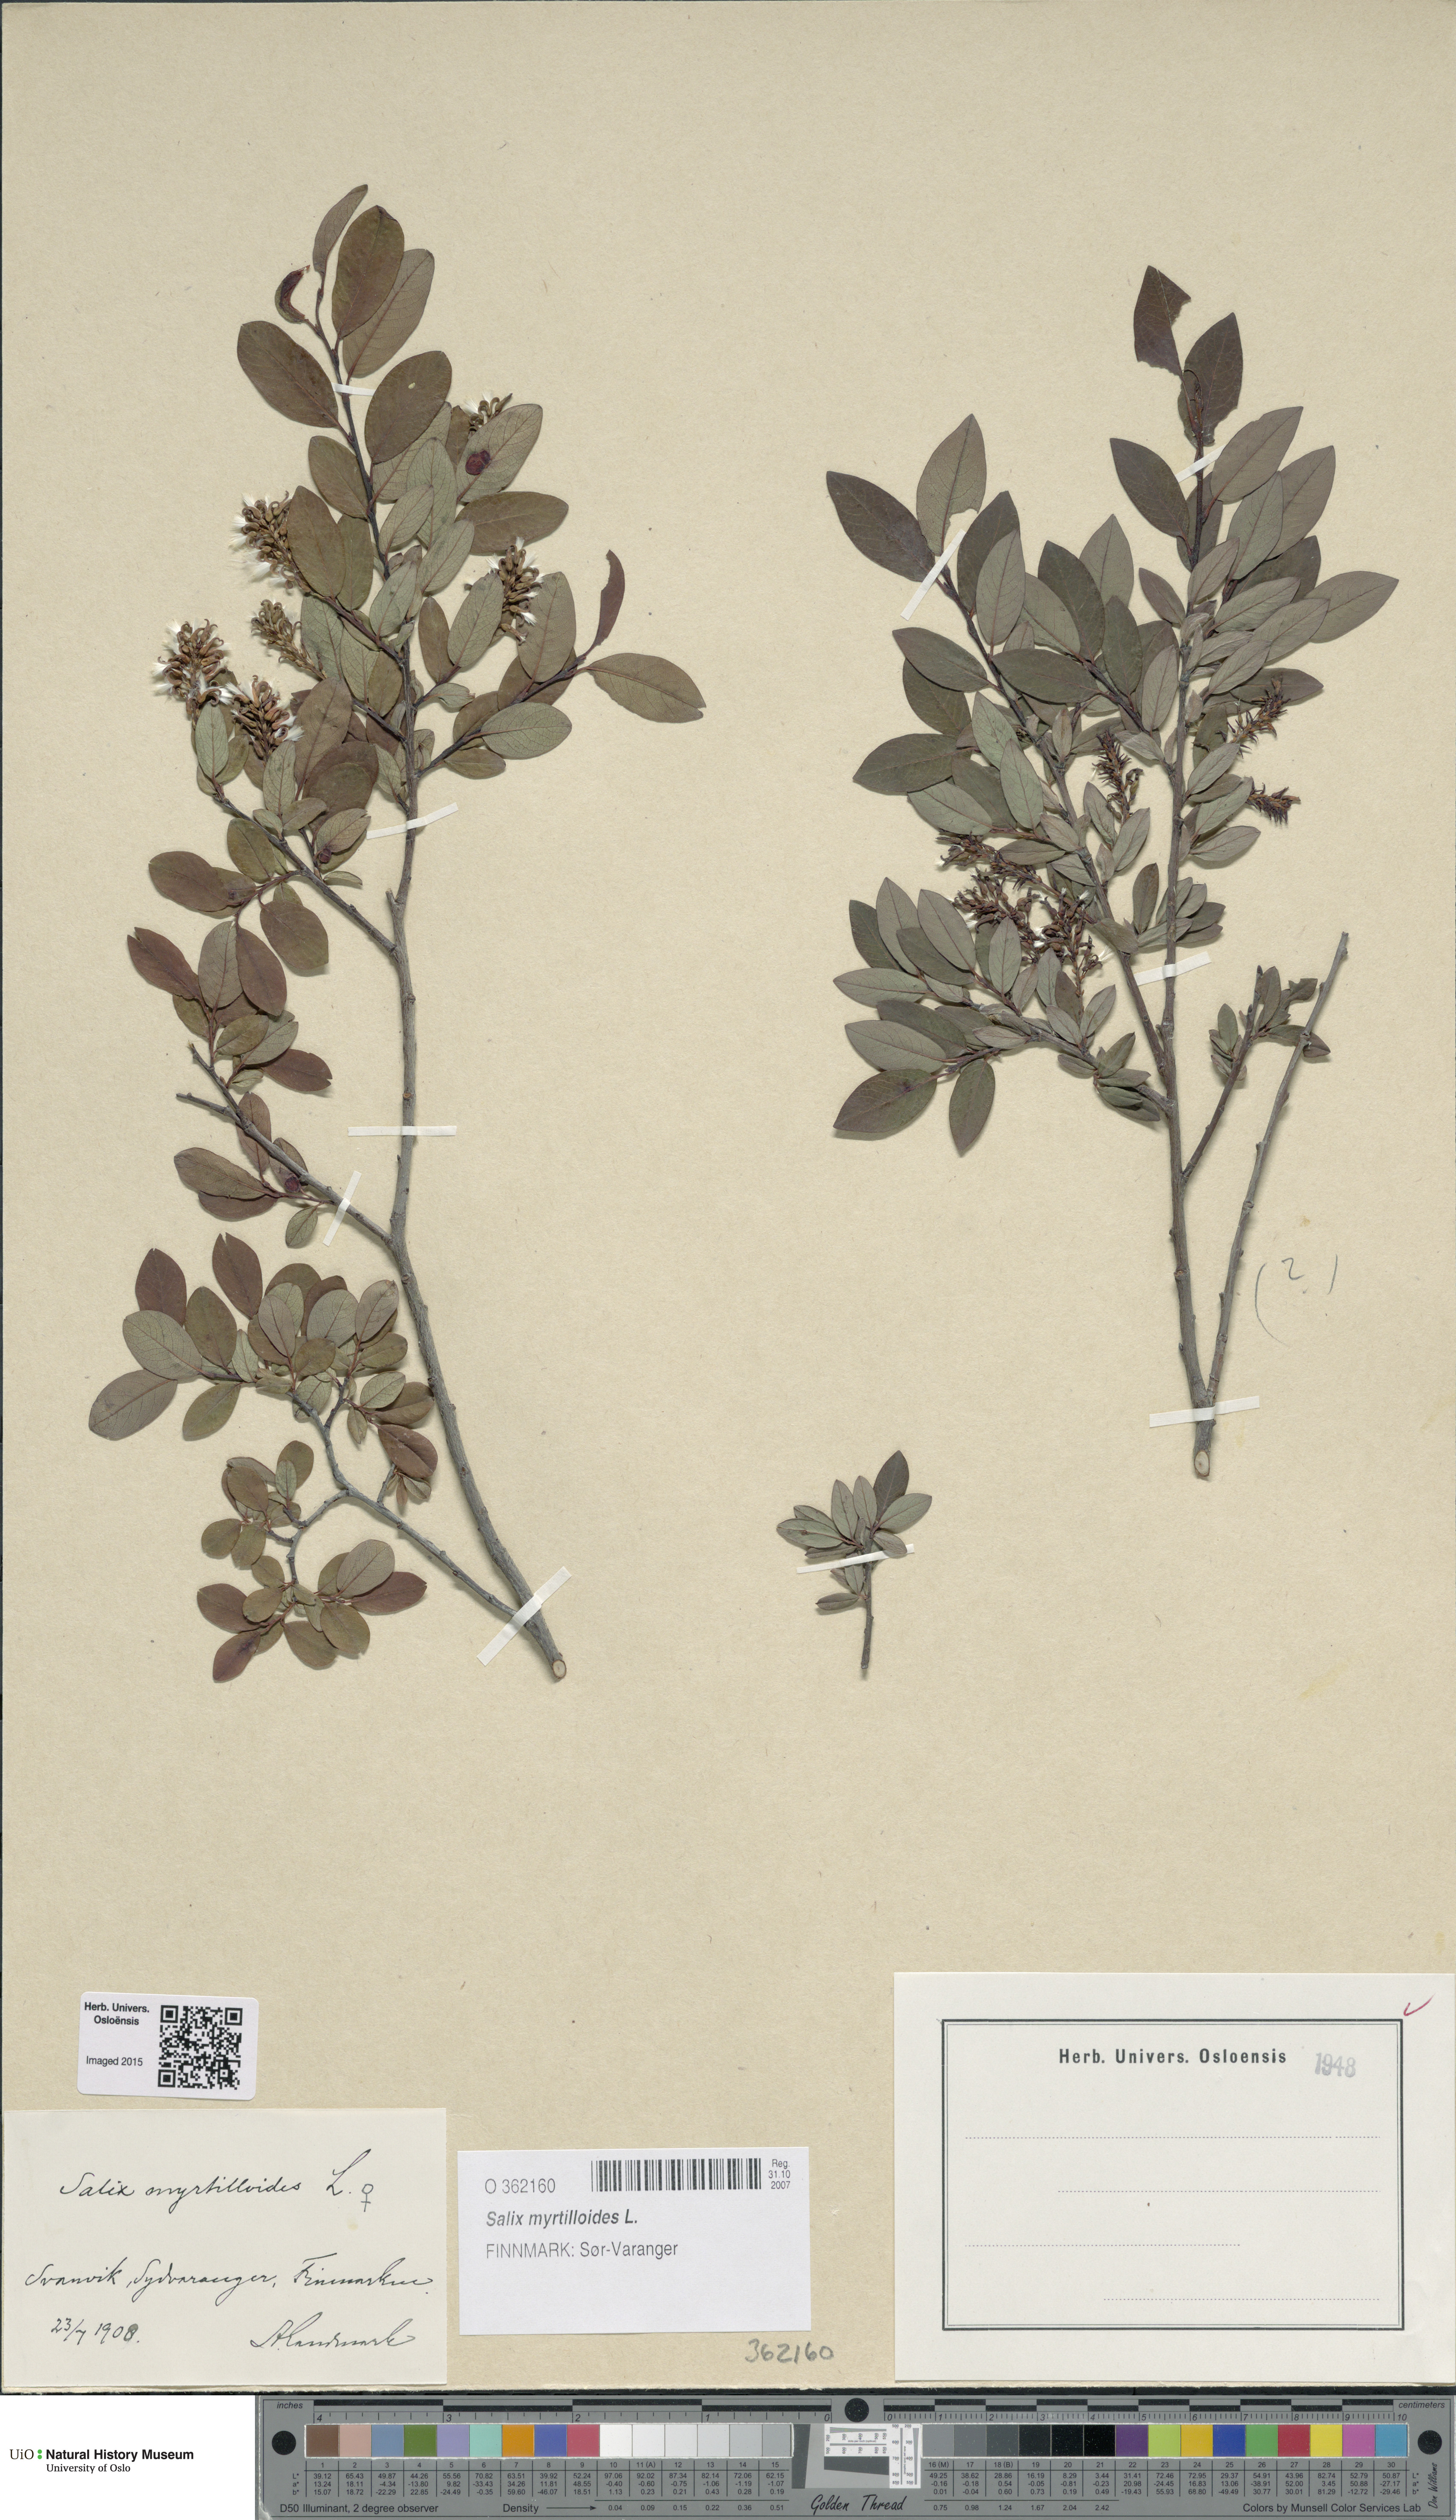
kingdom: Plantae
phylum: Tracheophyta
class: Magnoliopsida
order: Malpighiales
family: Salicaceae
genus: Salix
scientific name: Salix myrtilloides
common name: Myrtle-leaved willow
